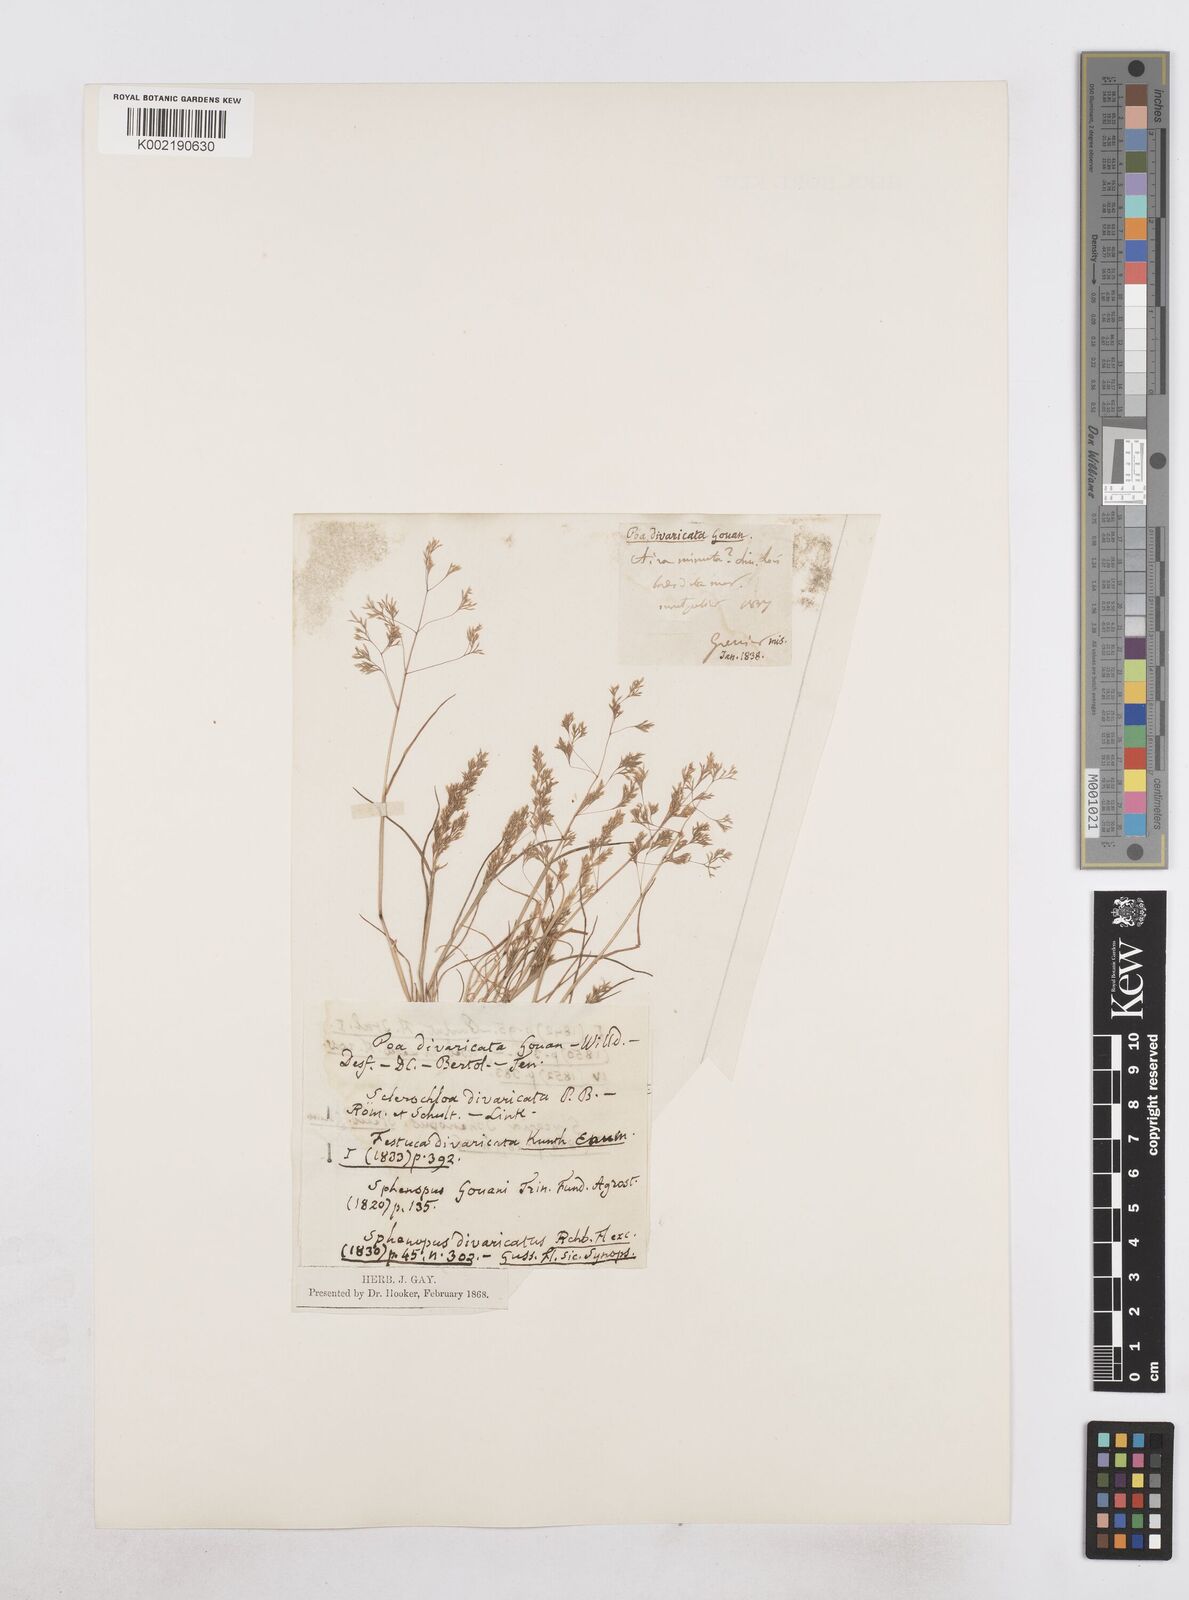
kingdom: Plantae
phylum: Tracheophyta
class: Liliopsida
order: Poales
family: Poaceae
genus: Sphenopus
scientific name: Sphenopus divaricatus
